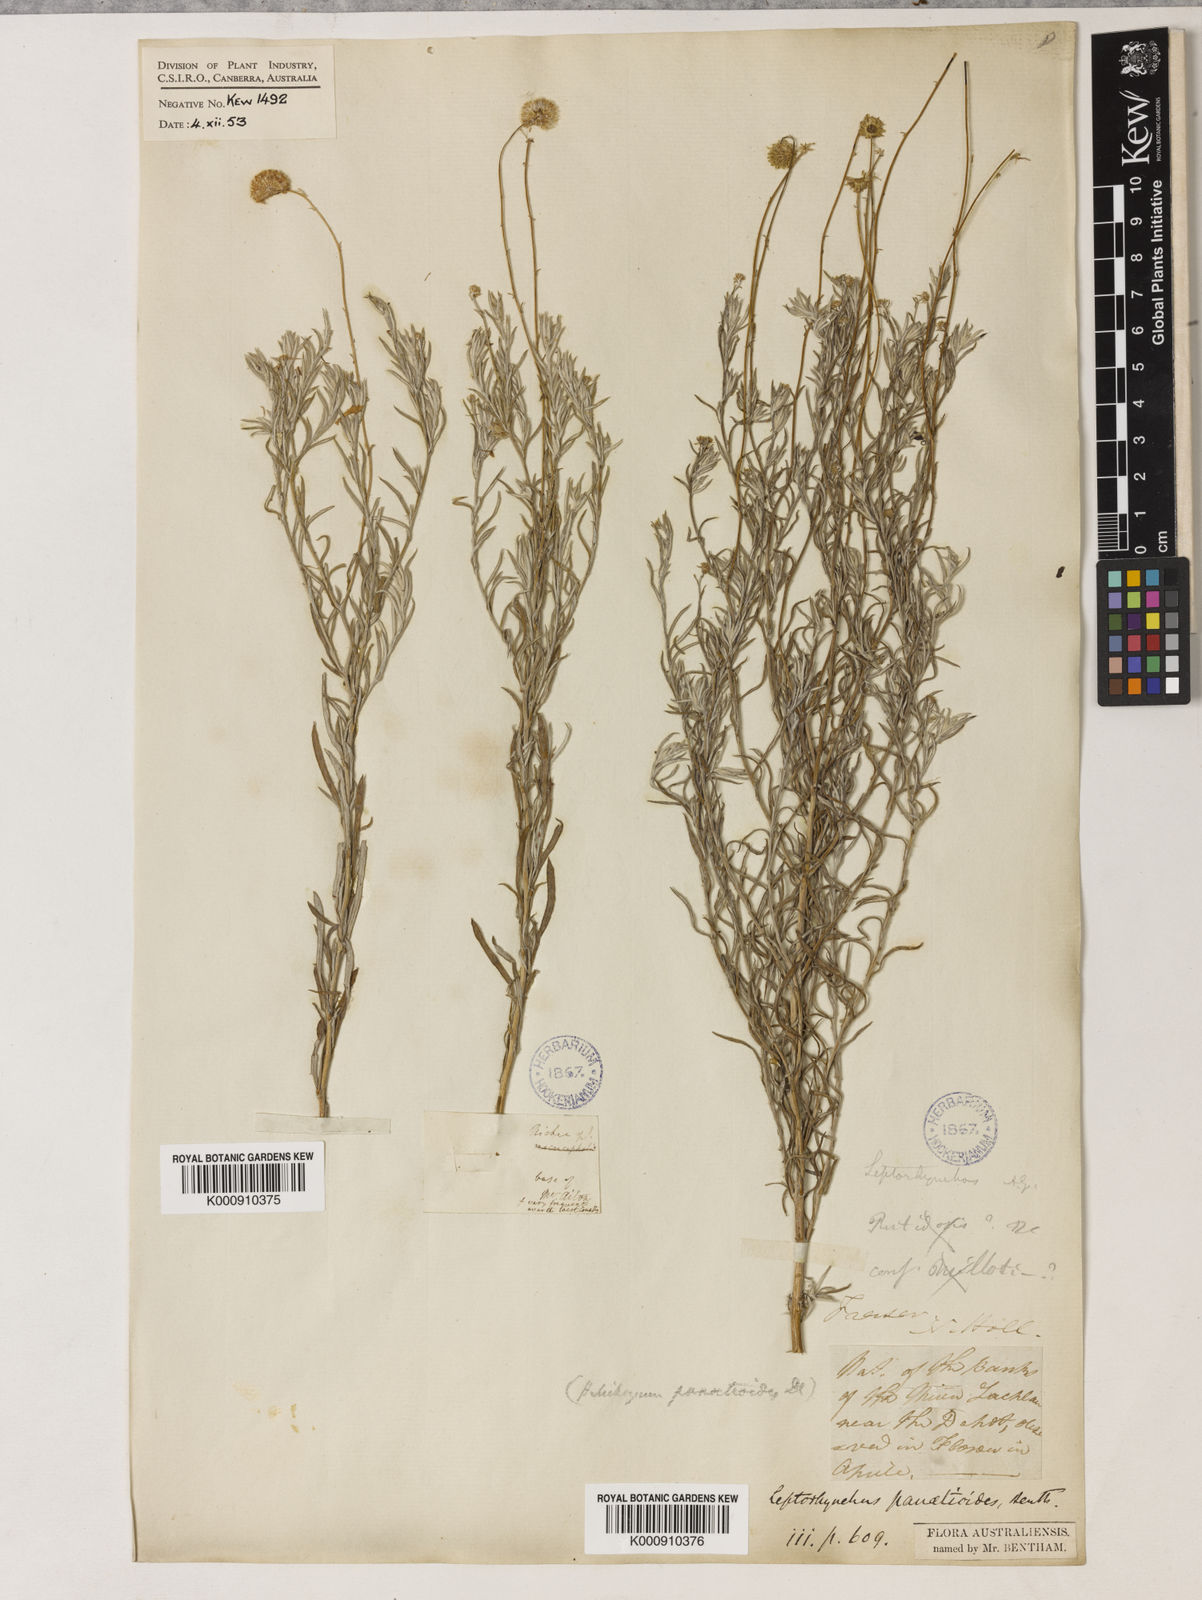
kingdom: Plantae
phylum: Tracheophyta
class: Magnoliopsida
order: Asterales
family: Asteraceae
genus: Leiocarpa
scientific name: Leiocarpa panaetioides
